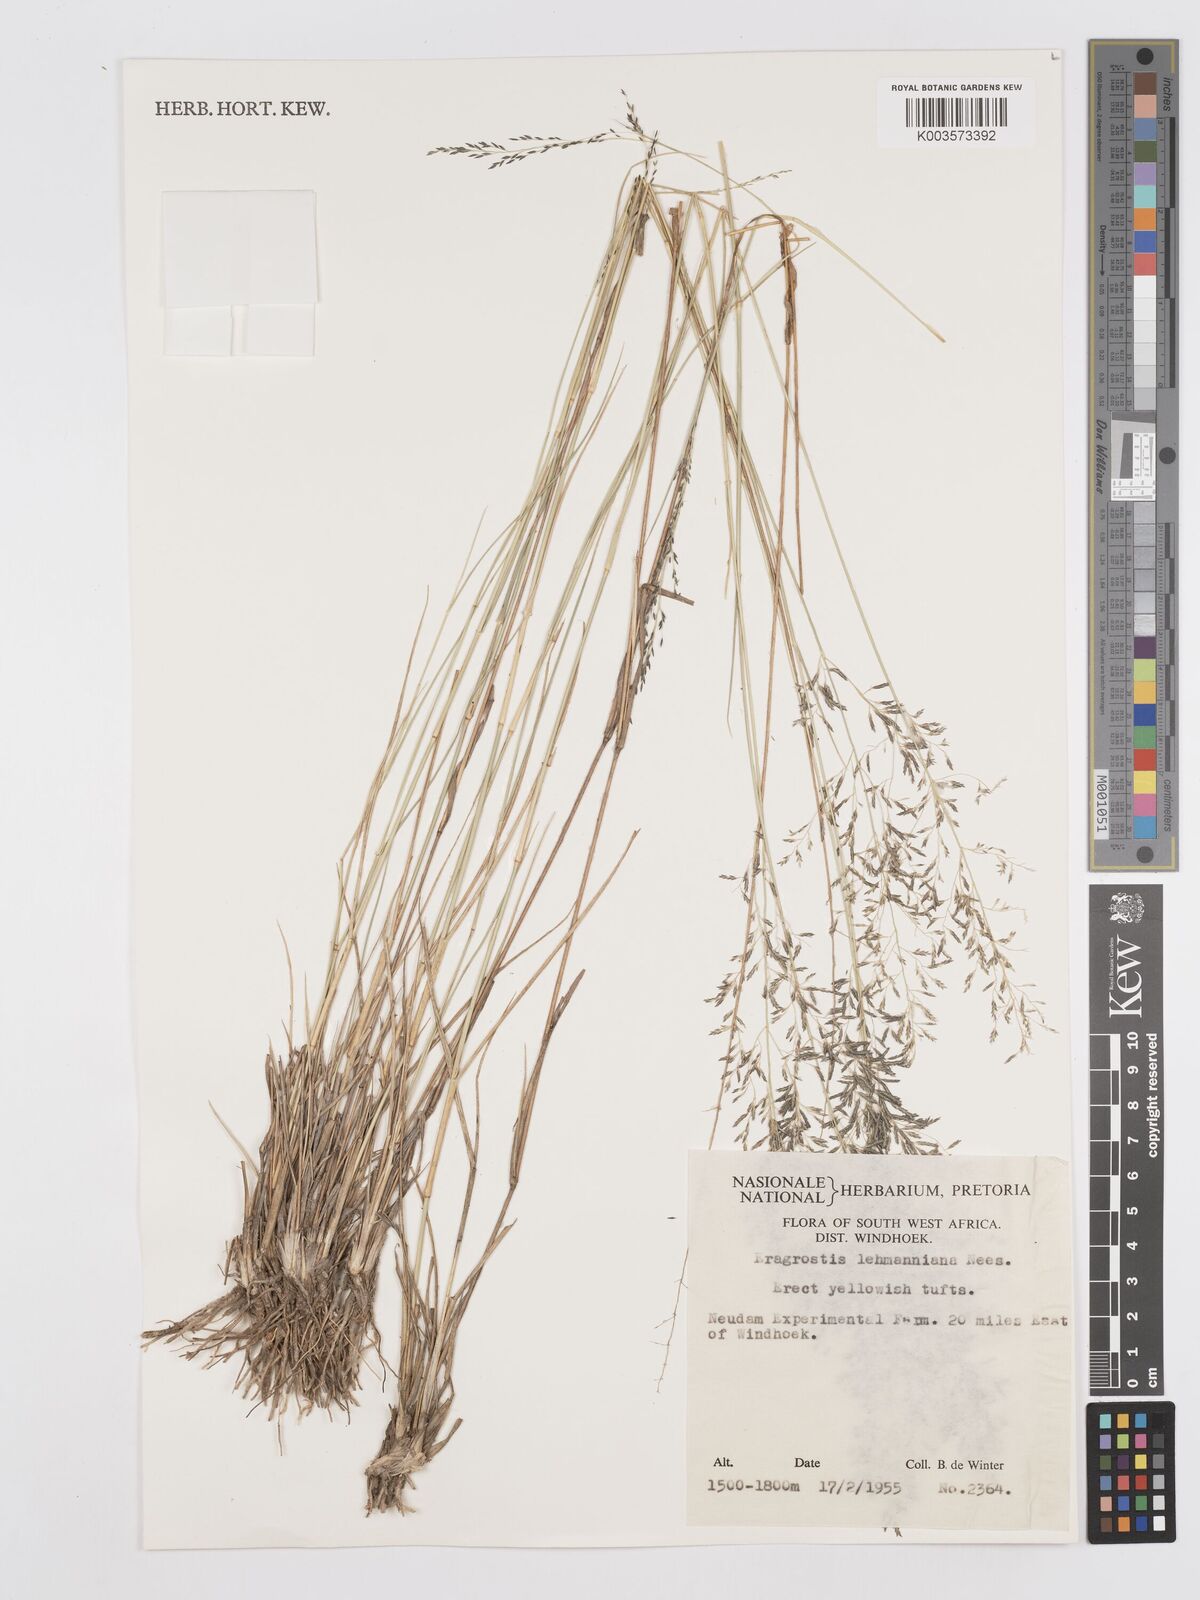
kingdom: Plantae
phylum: Tracheophyta
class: Liliopsida
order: Poales
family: Poaceae
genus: Eragrostis
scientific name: Eragrostis lehmanniana
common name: Lehmann lovegrass
